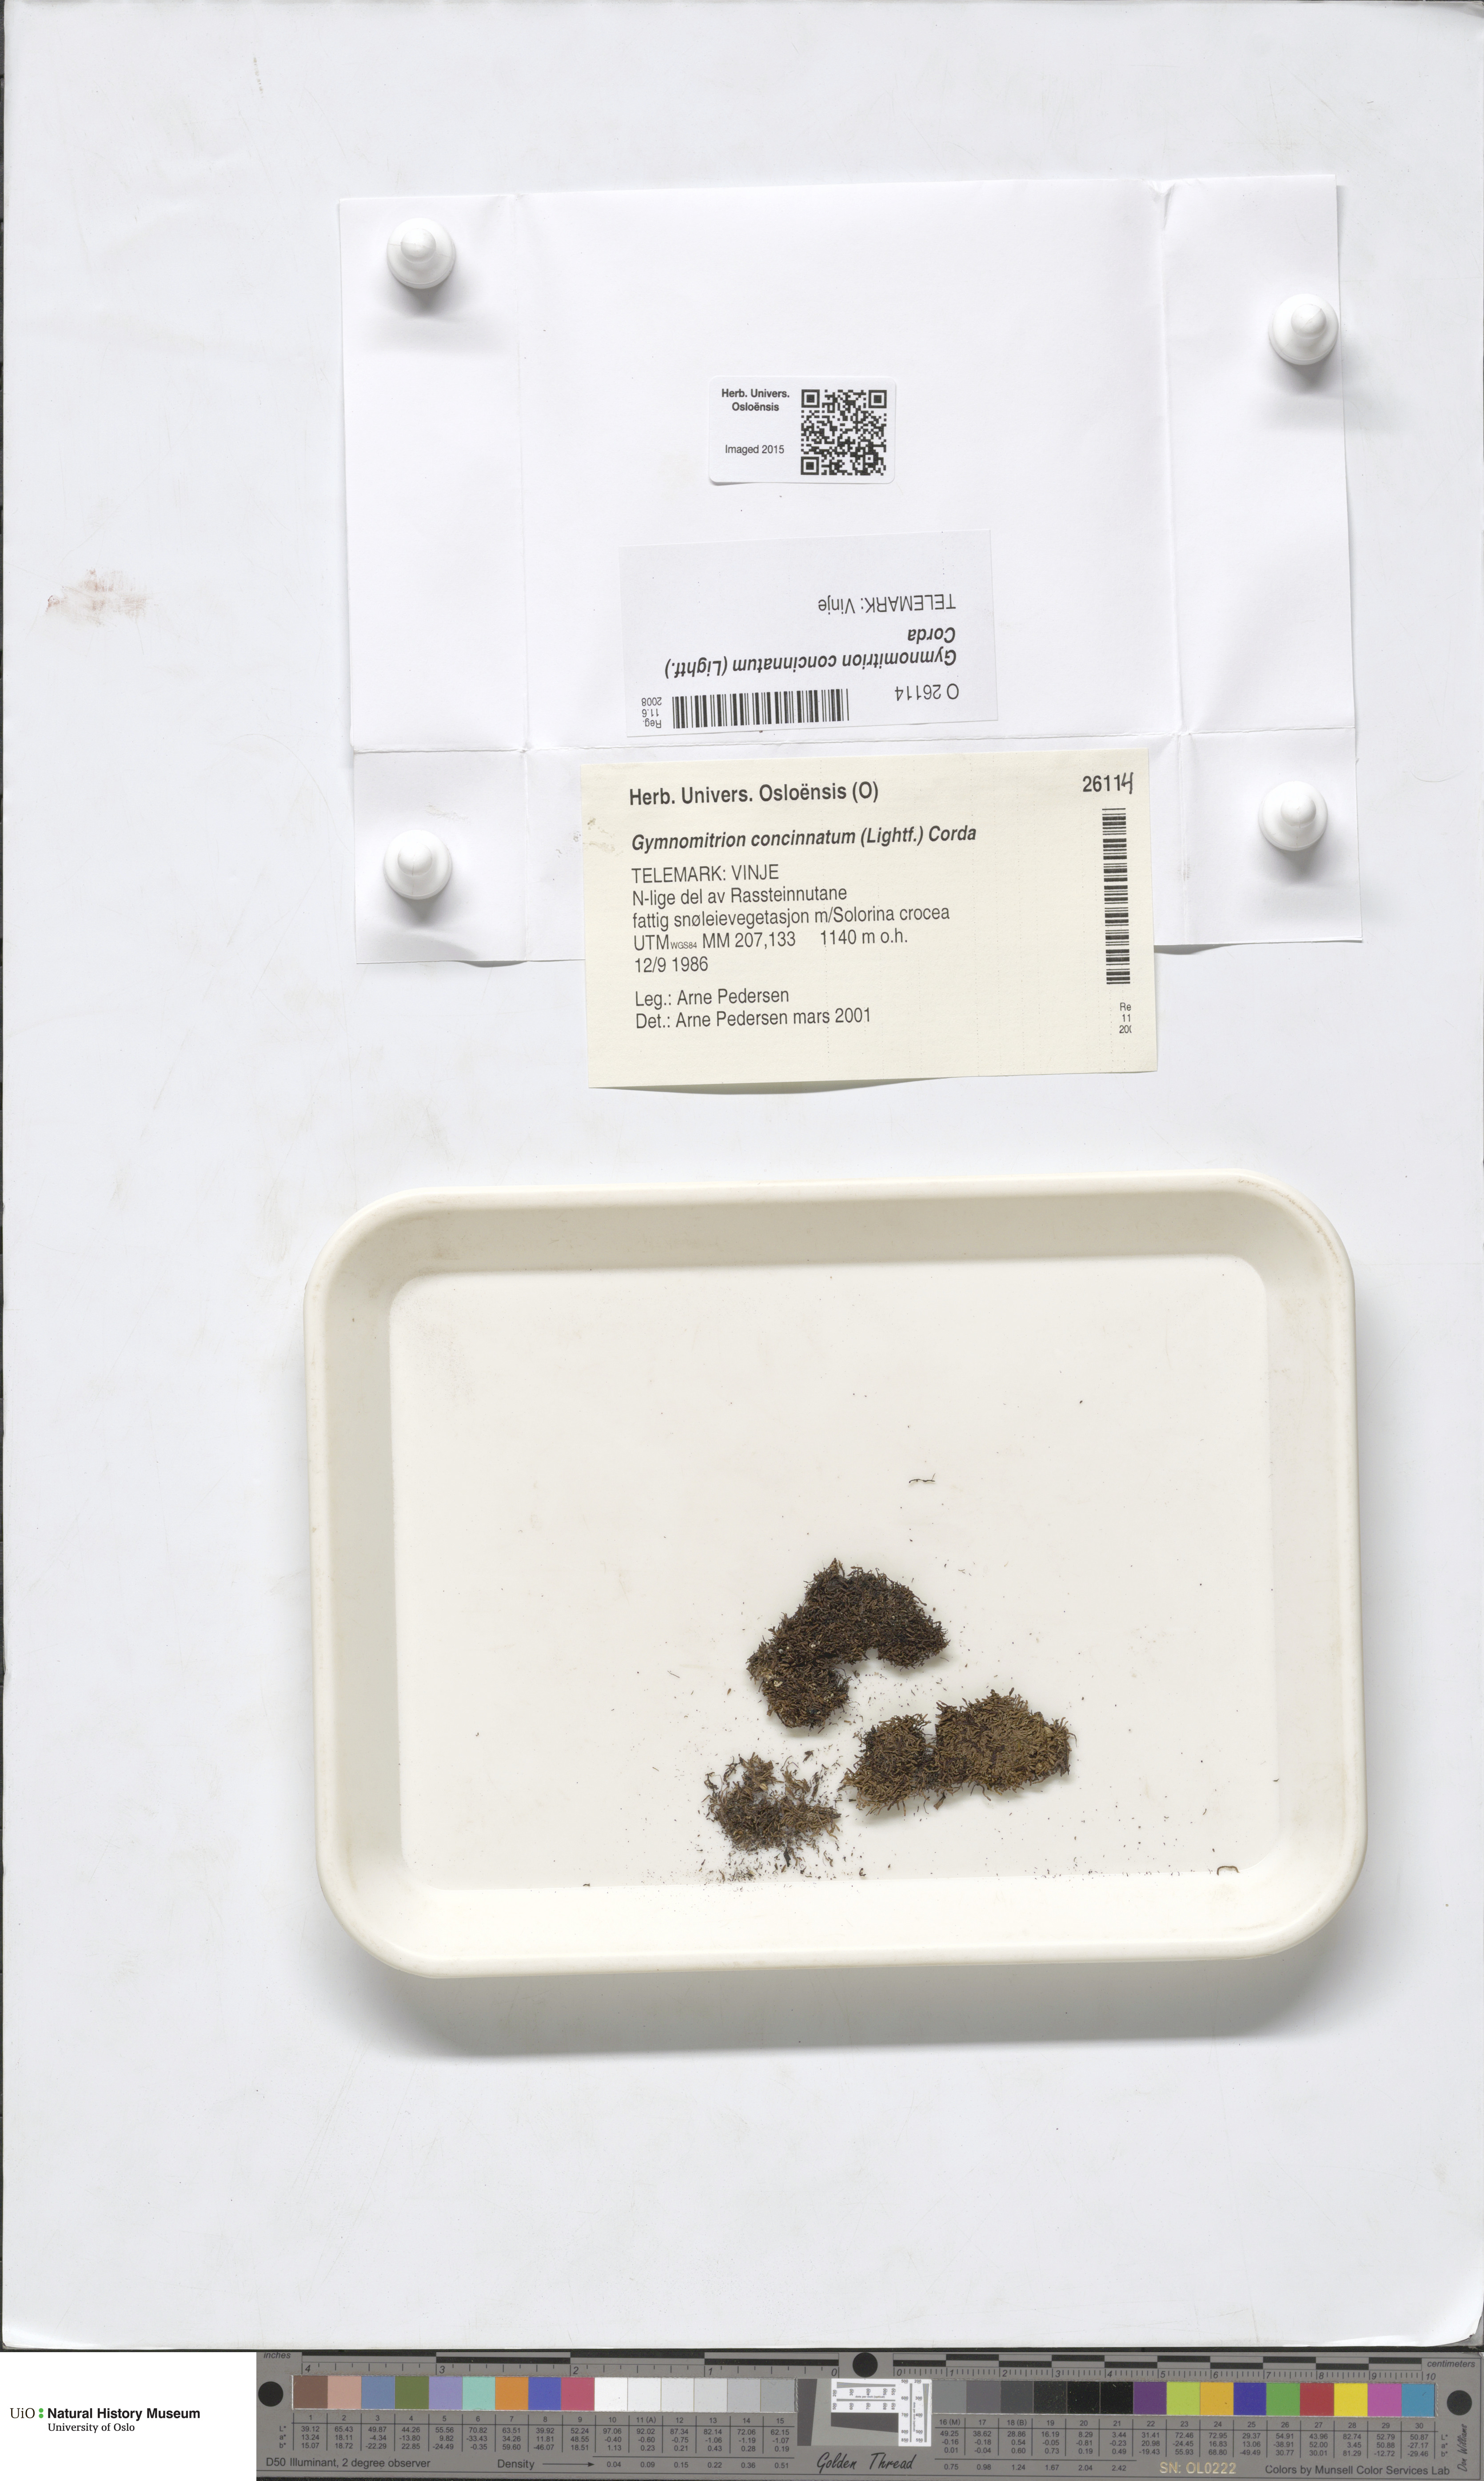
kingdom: Plantae
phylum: Marchantiophyta
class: Jungermanniopsida
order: Jungermanniales
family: Gymnomitriaceae
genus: Gymnomitrion
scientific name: Gymnomitrion concinnatum
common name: Braided frostwort
